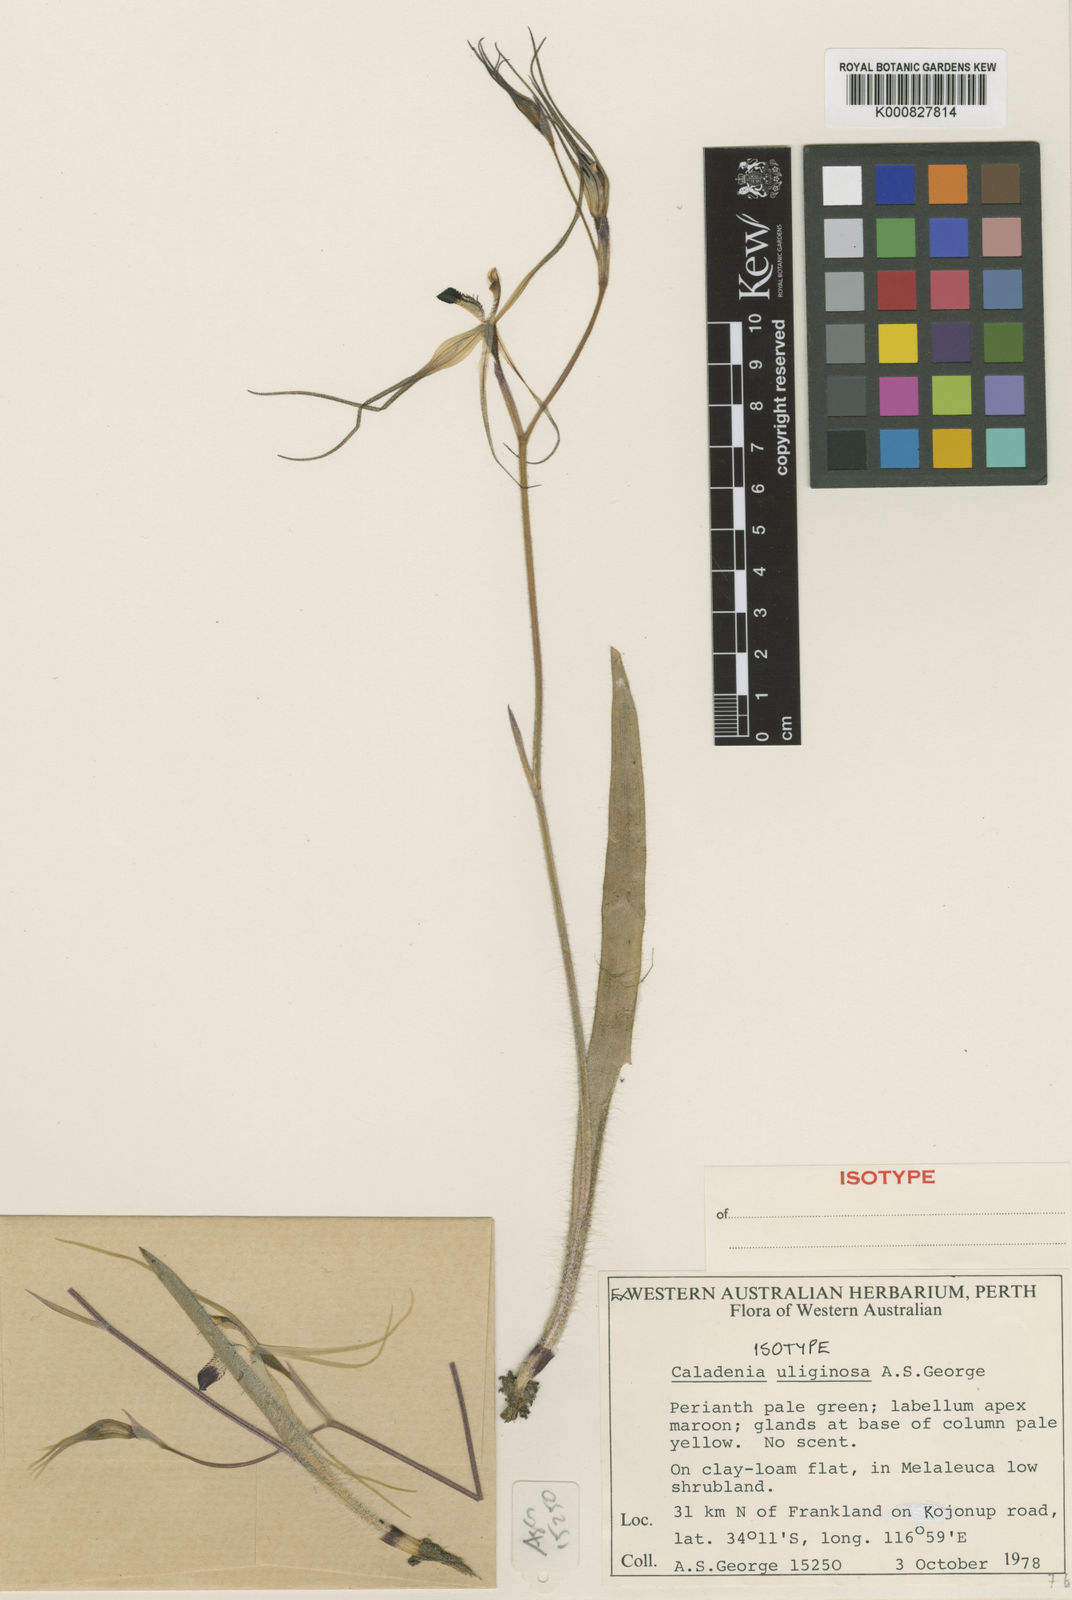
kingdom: Plantae
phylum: Tracheophyta
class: Liliopsida
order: Asparagales
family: Orchidaceae
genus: Caladenia
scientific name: Caladenia uliginosa
